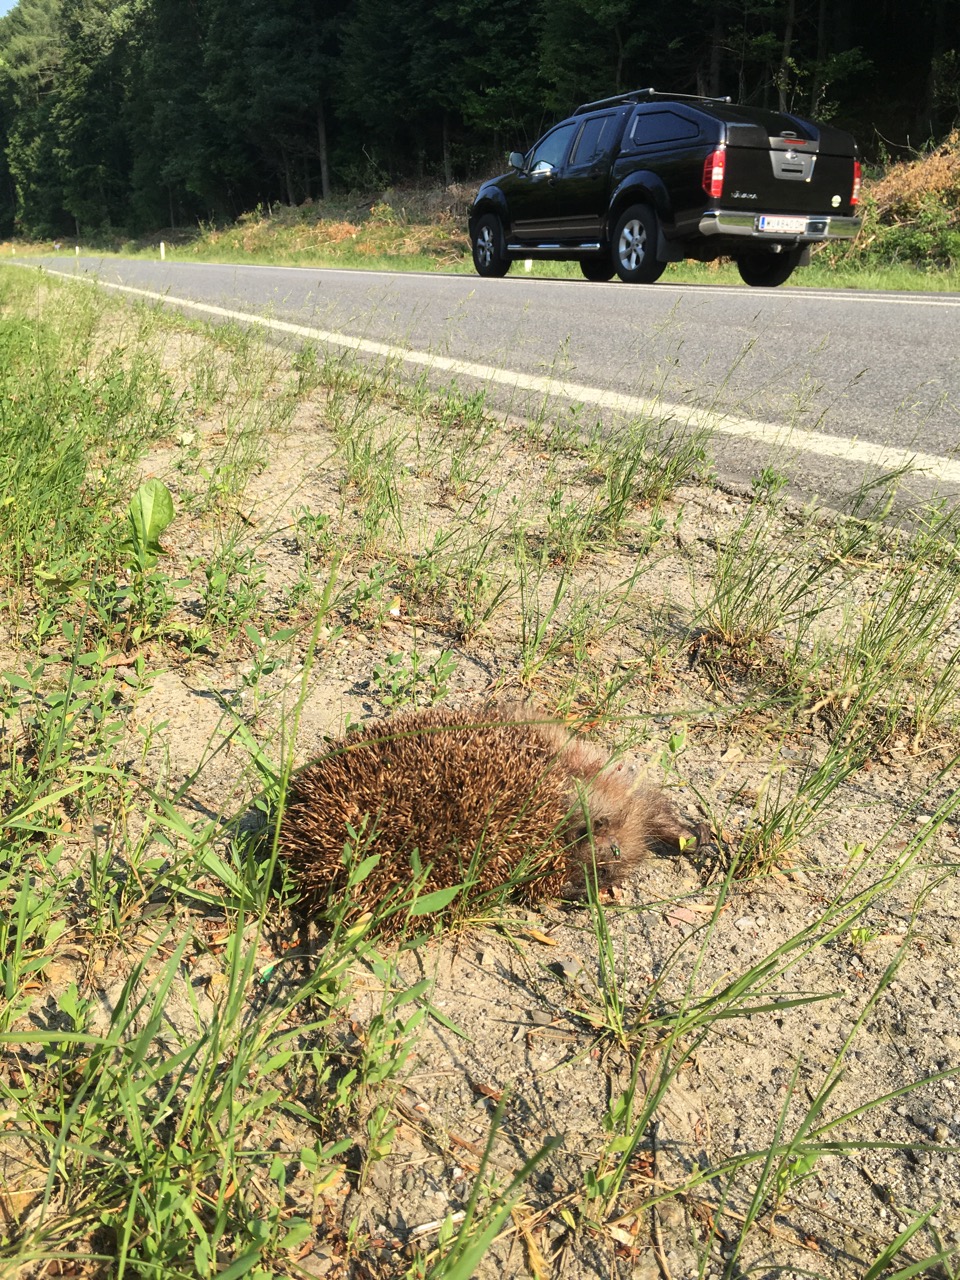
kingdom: Animalia
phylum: Chordata
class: Mammalia
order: Erinaceomorpha
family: Erinaceidae
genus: Erinaceus
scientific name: Erinaceus
